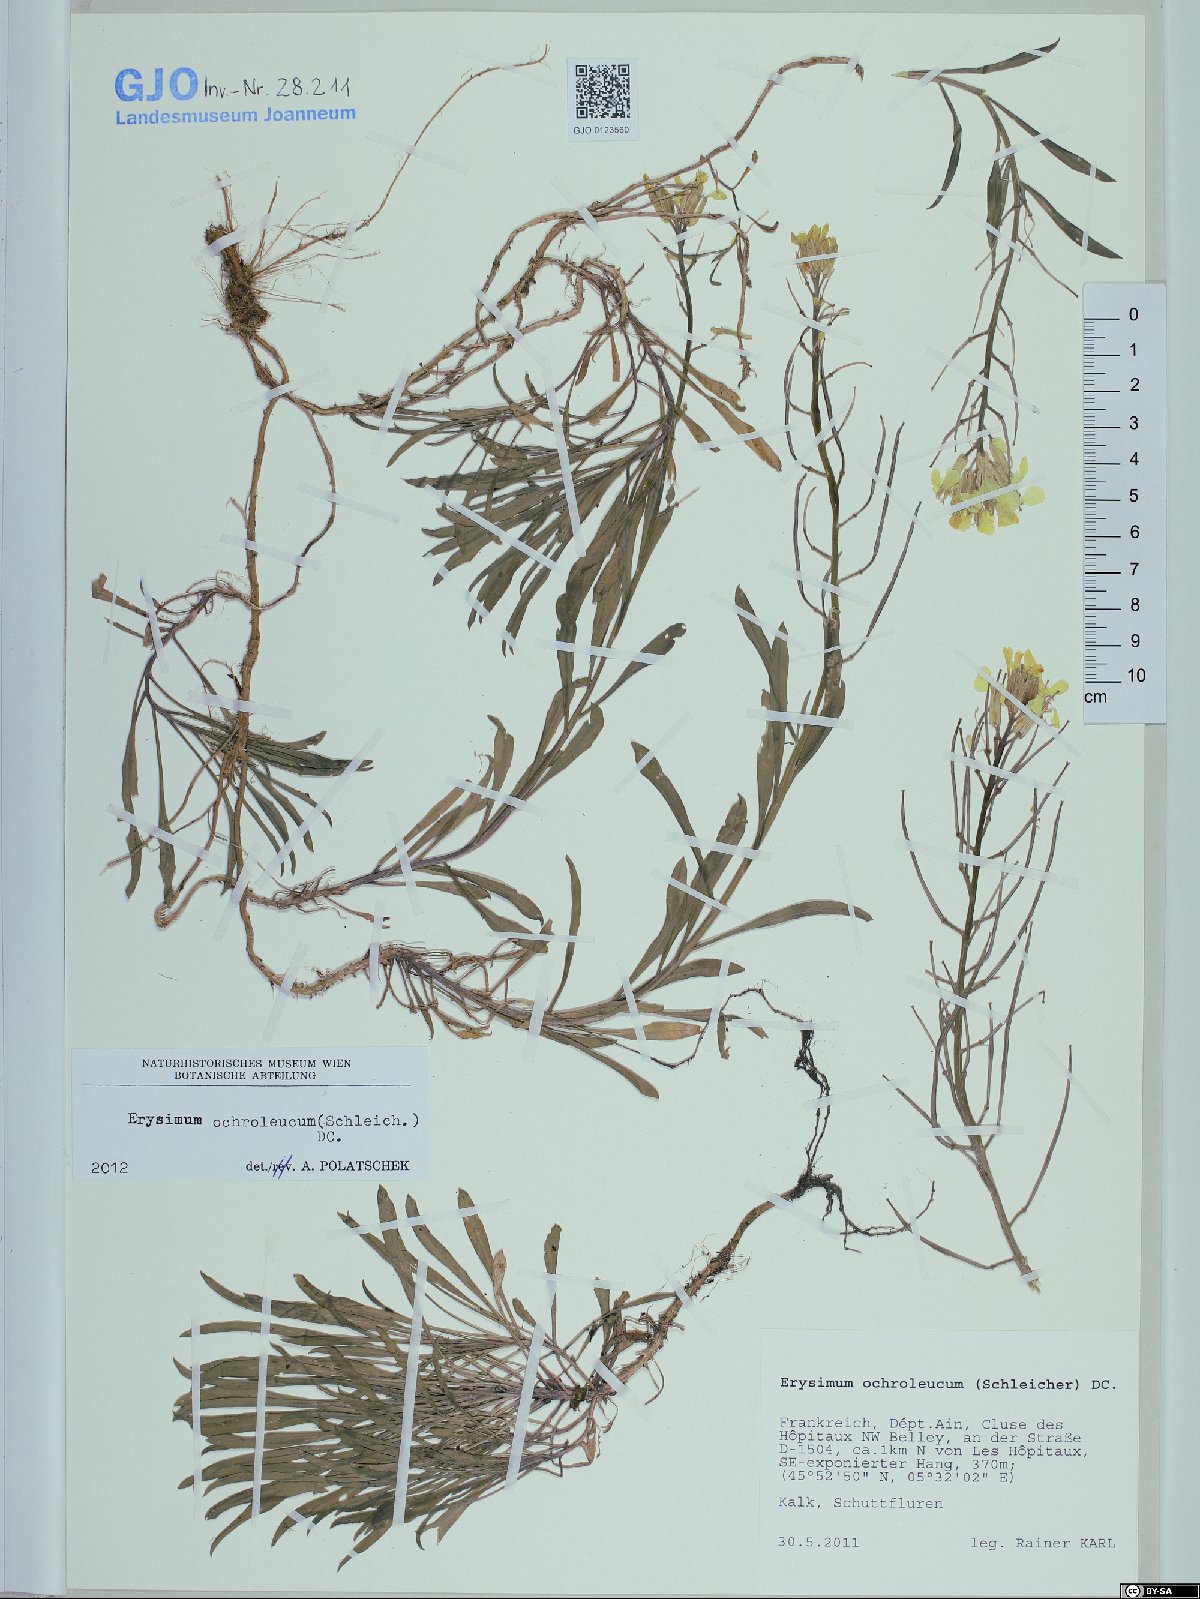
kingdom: Plantae
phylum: Tracheophyta
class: Magnoliopsida
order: Brassicales
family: Brassicaceae
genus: Erysimum
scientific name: Erysimum humile
